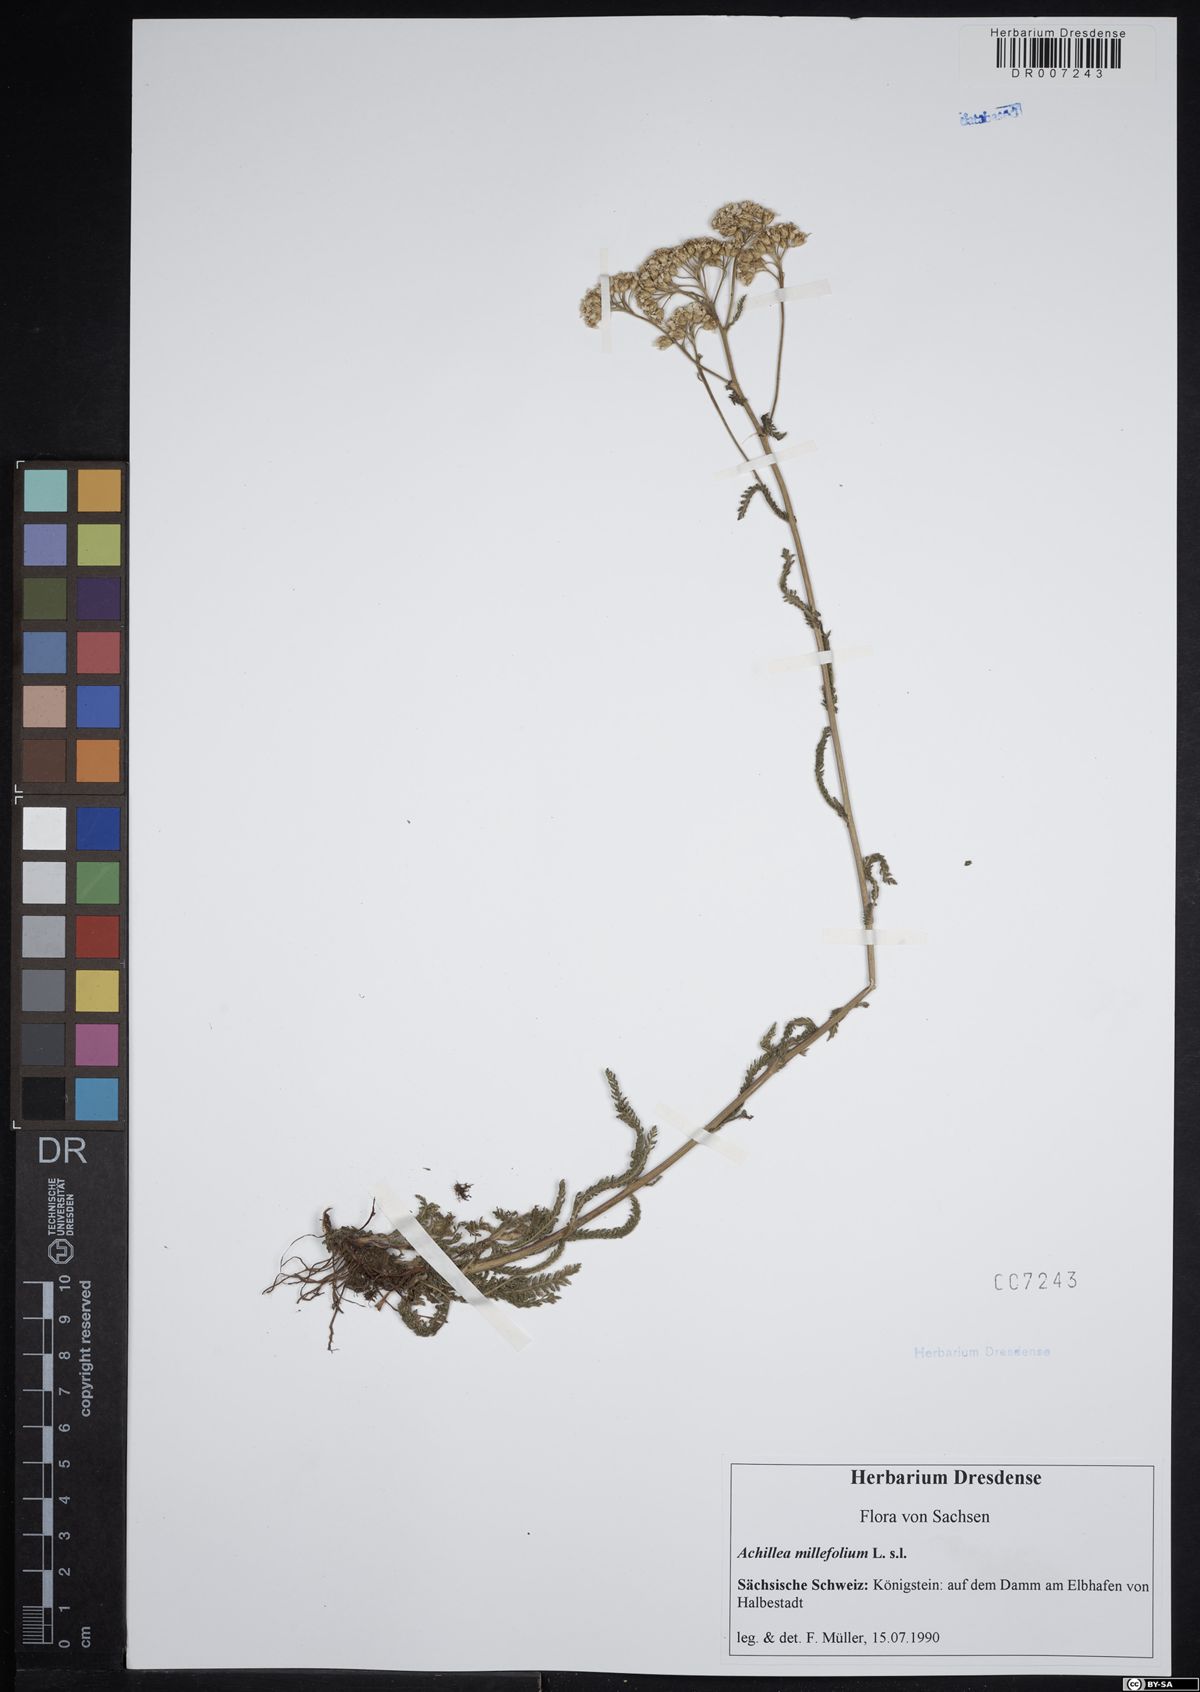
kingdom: Plantae
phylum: Tracheophyta
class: Magnoliopsida
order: Asterales
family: Asteraceae
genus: Achillea
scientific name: Achillea millefolium
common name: Yarrow
